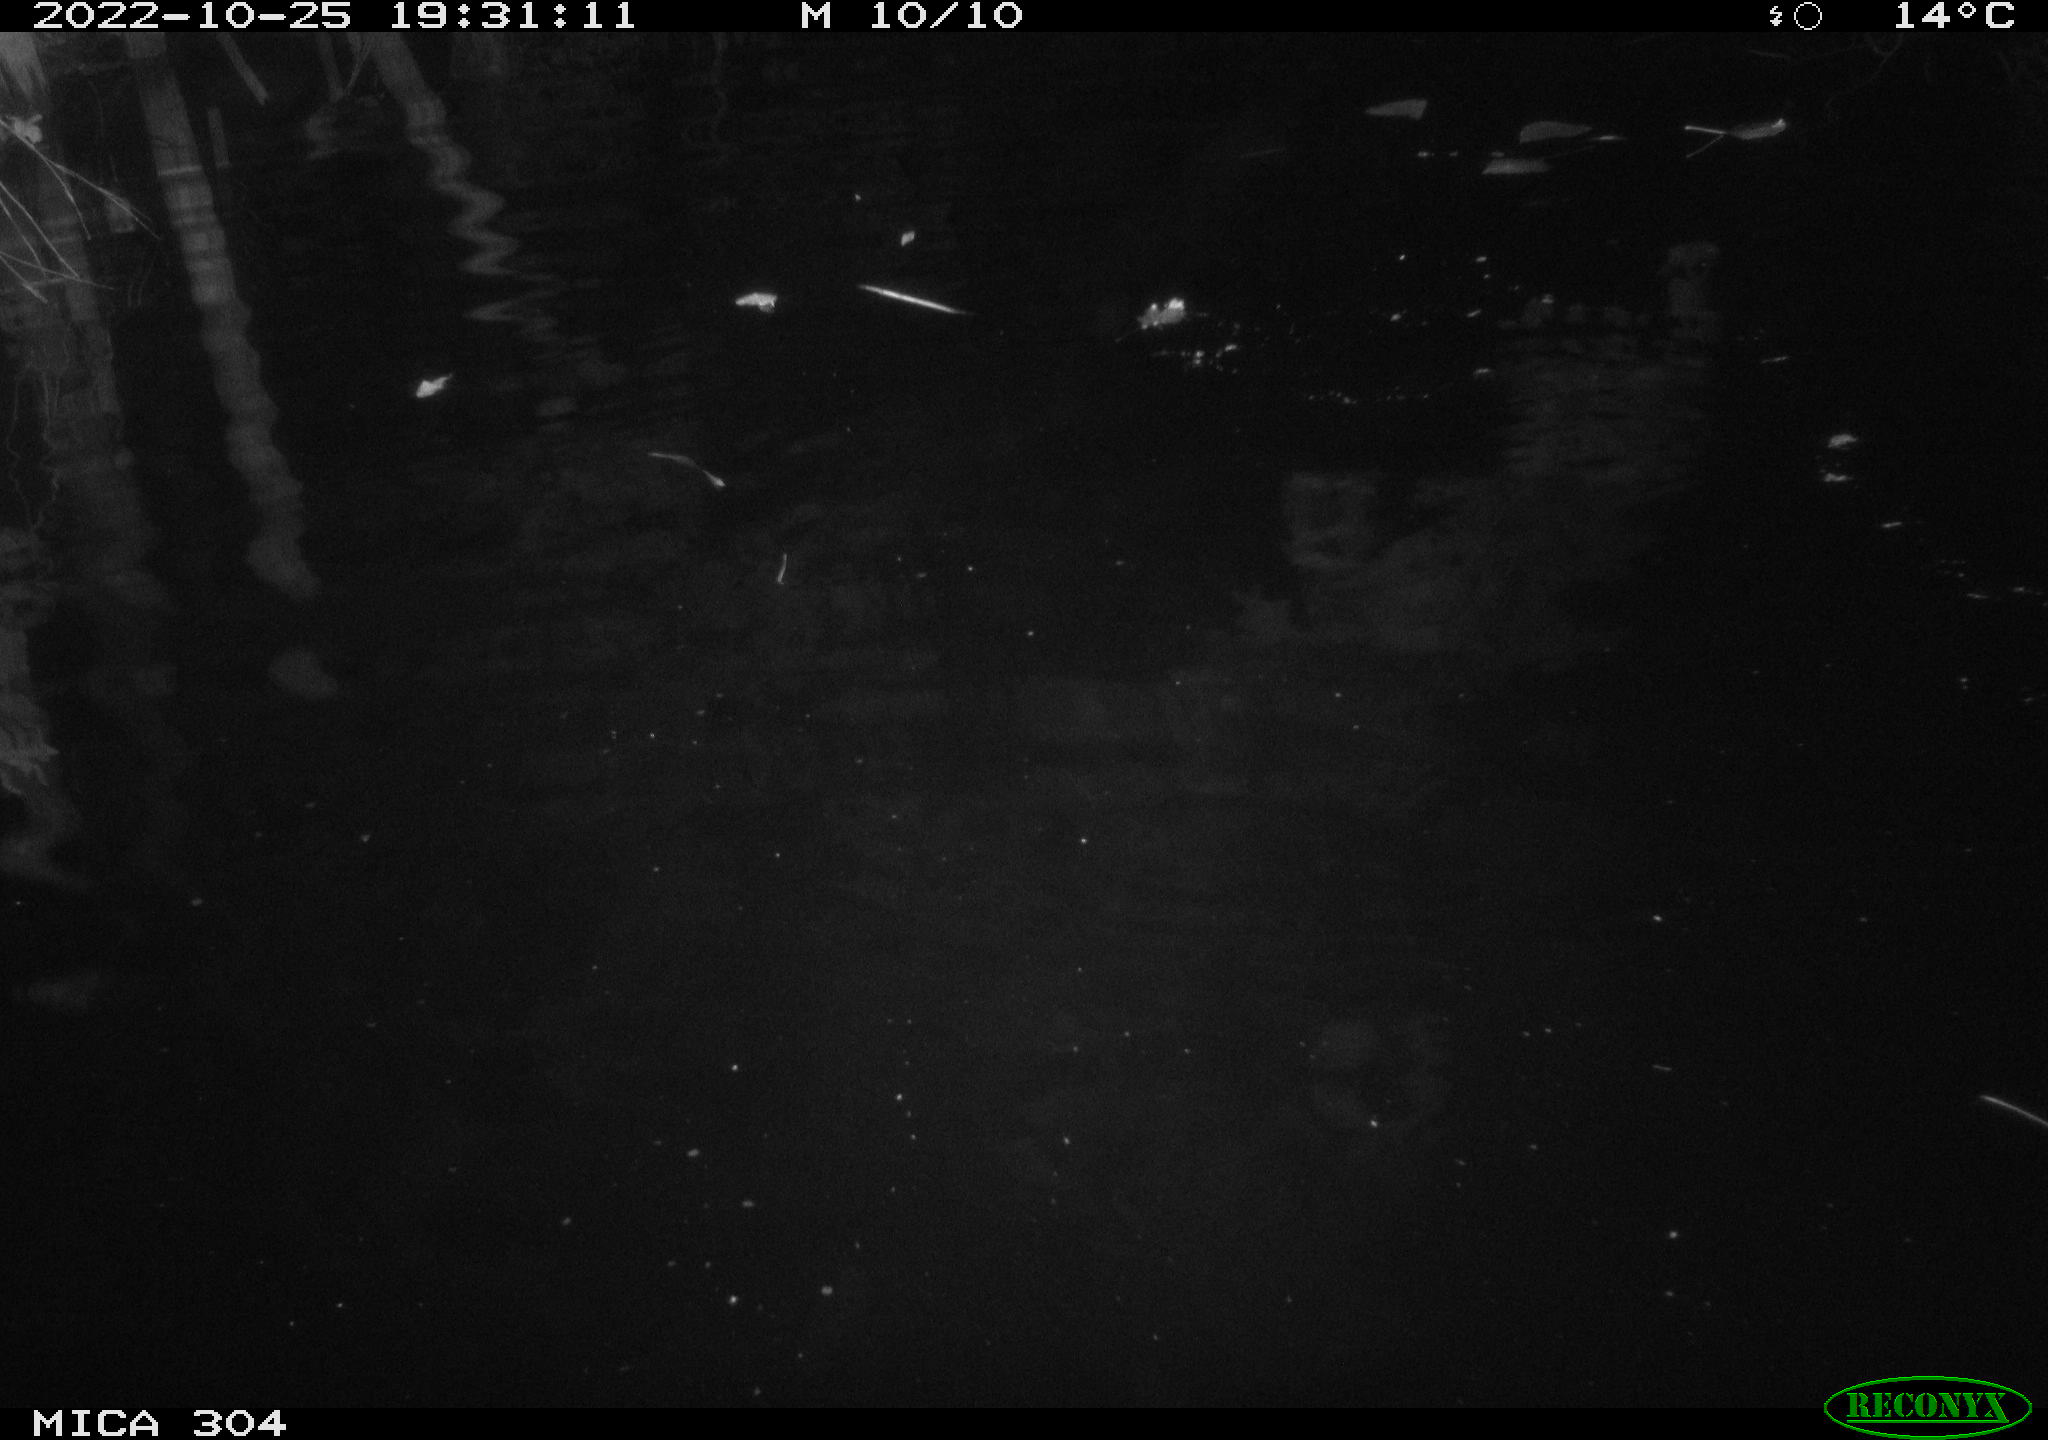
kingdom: Animalia
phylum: Chordata
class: Mammalia
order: Rodentia
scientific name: Rodentia
